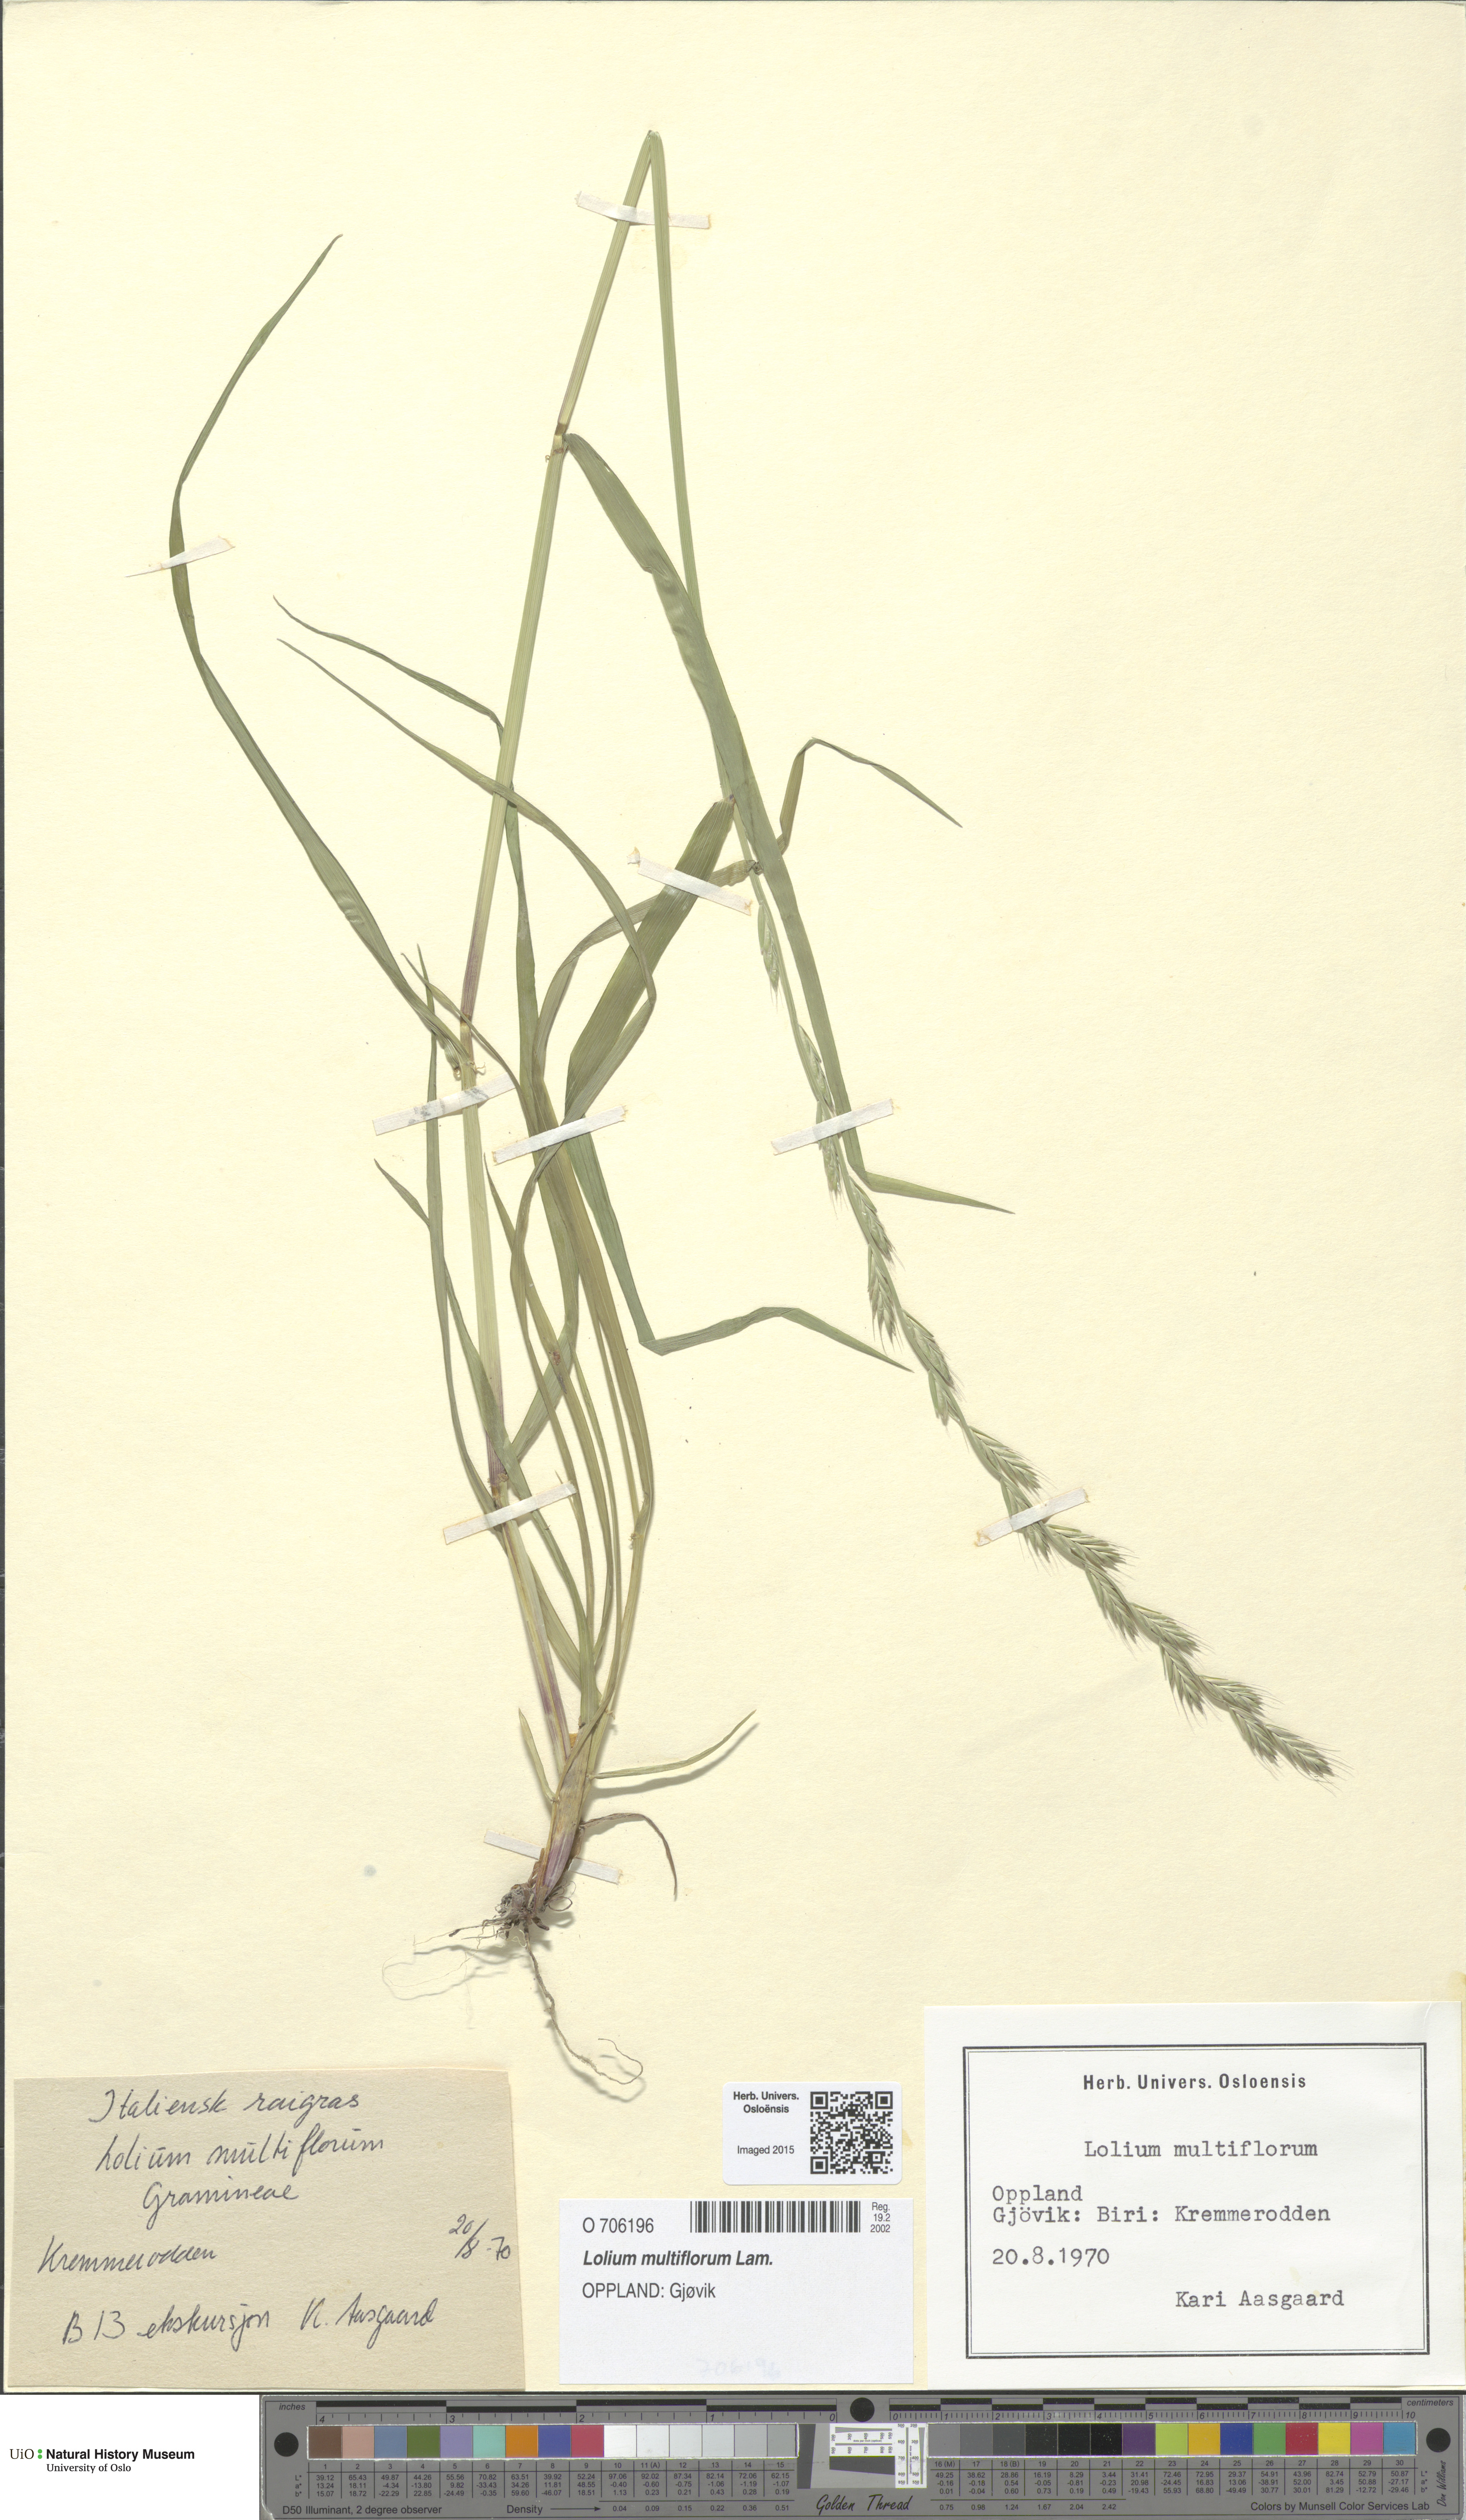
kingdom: Plantae
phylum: Tracheophyta
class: Liliopsida
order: Poales
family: Poaceae
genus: Lolium
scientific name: Lolium multiflorum
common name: Annual ryegrass
